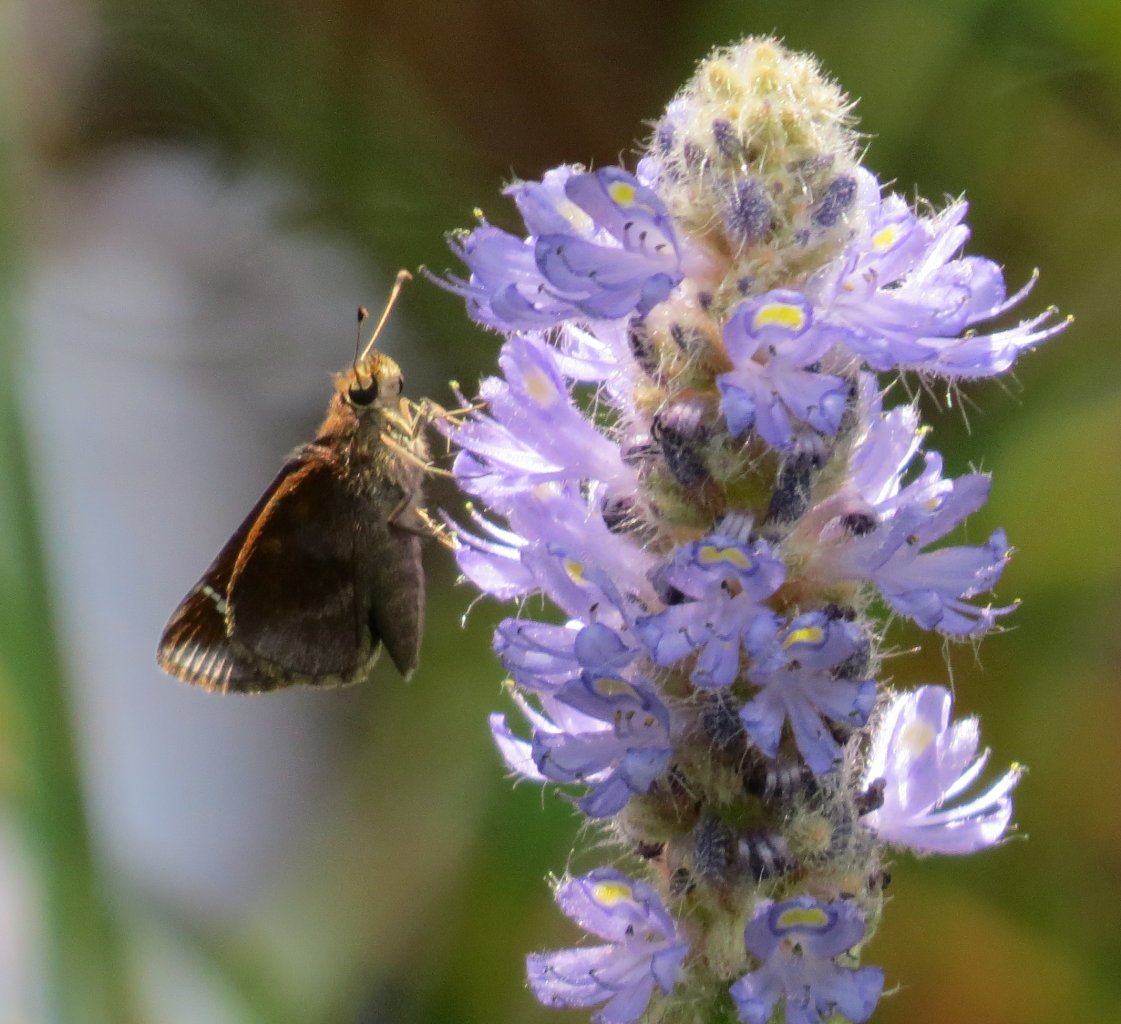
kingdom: Animalia
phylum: Arthropoda
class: Insecta
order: Lepidoptera
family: Hesperiidae
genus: Lerema
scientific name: Lerema accius
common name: Clouded Skipper
